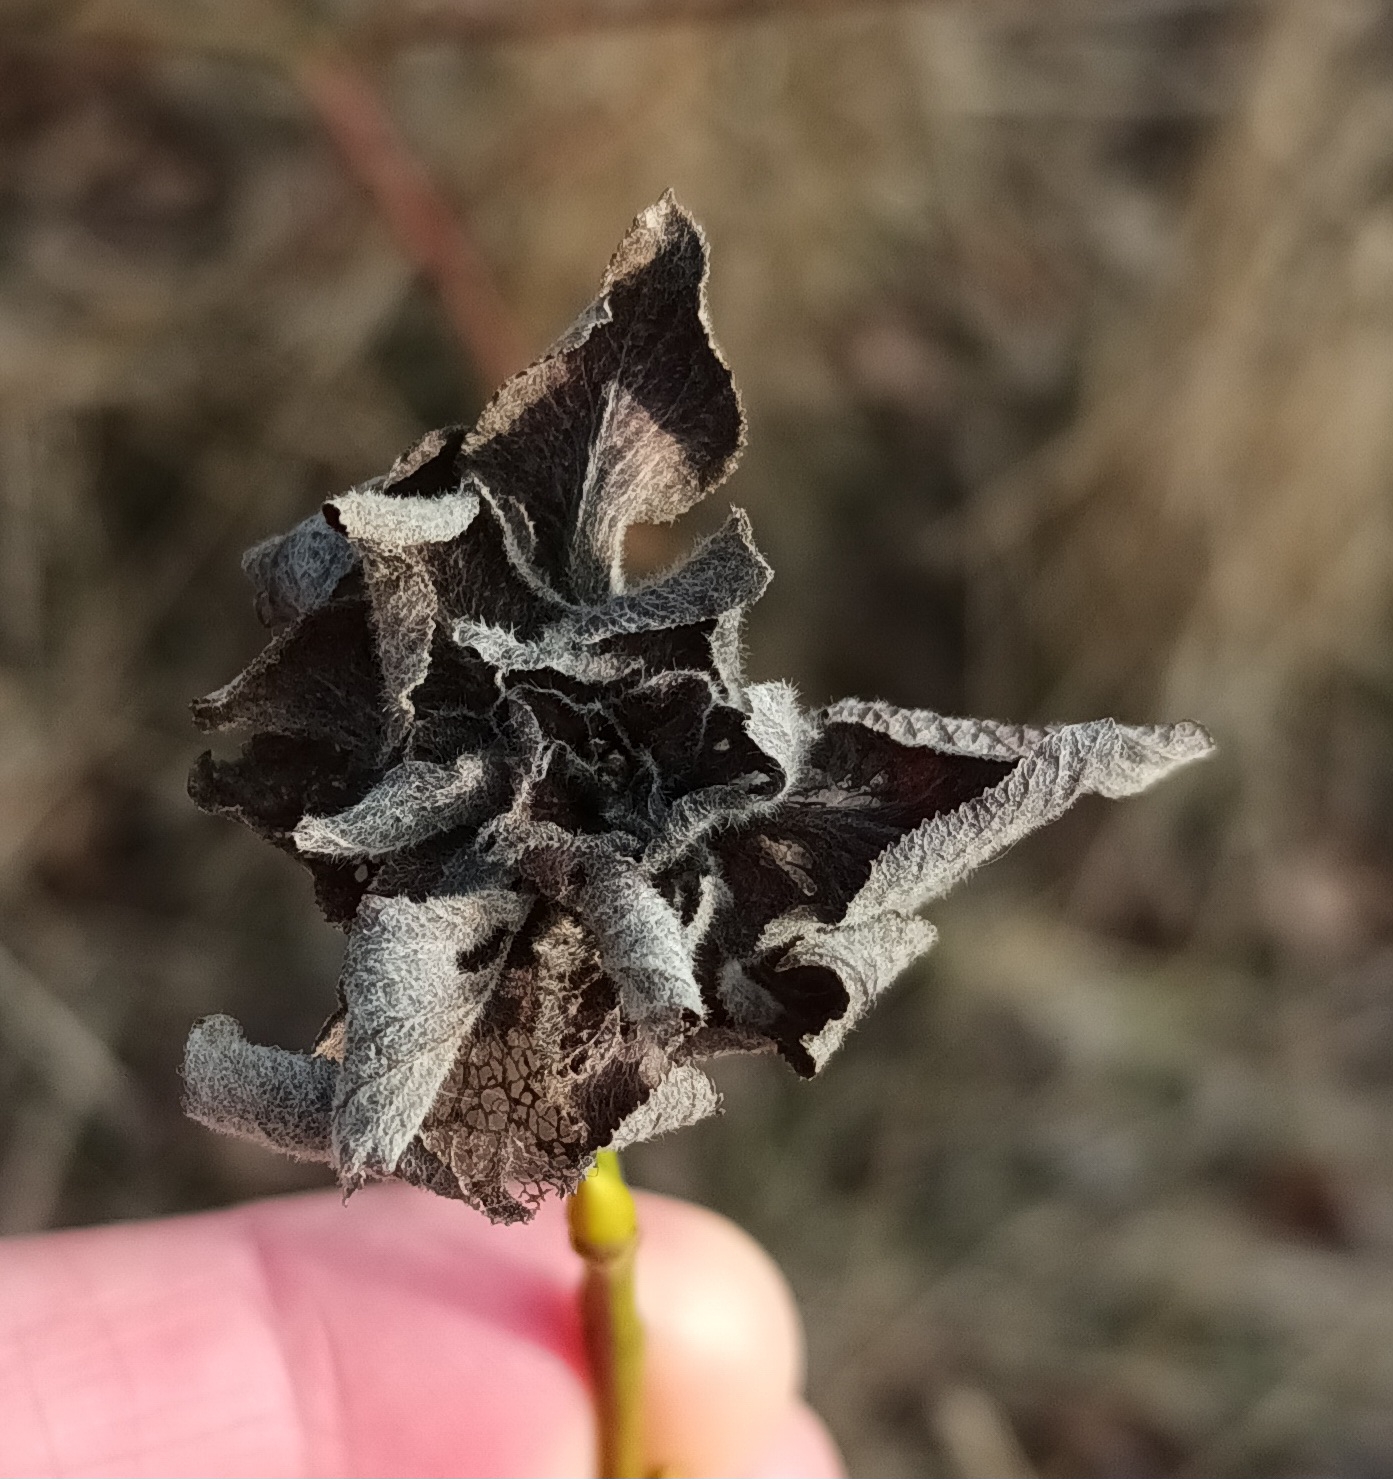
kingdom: Animalia
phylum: Arthropoda
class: Insecta
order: Diptera
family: Cecidomyiidae
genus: Rabdophaga
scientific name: Rabdophaga rosaria
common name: Pilerosetgalmyg
